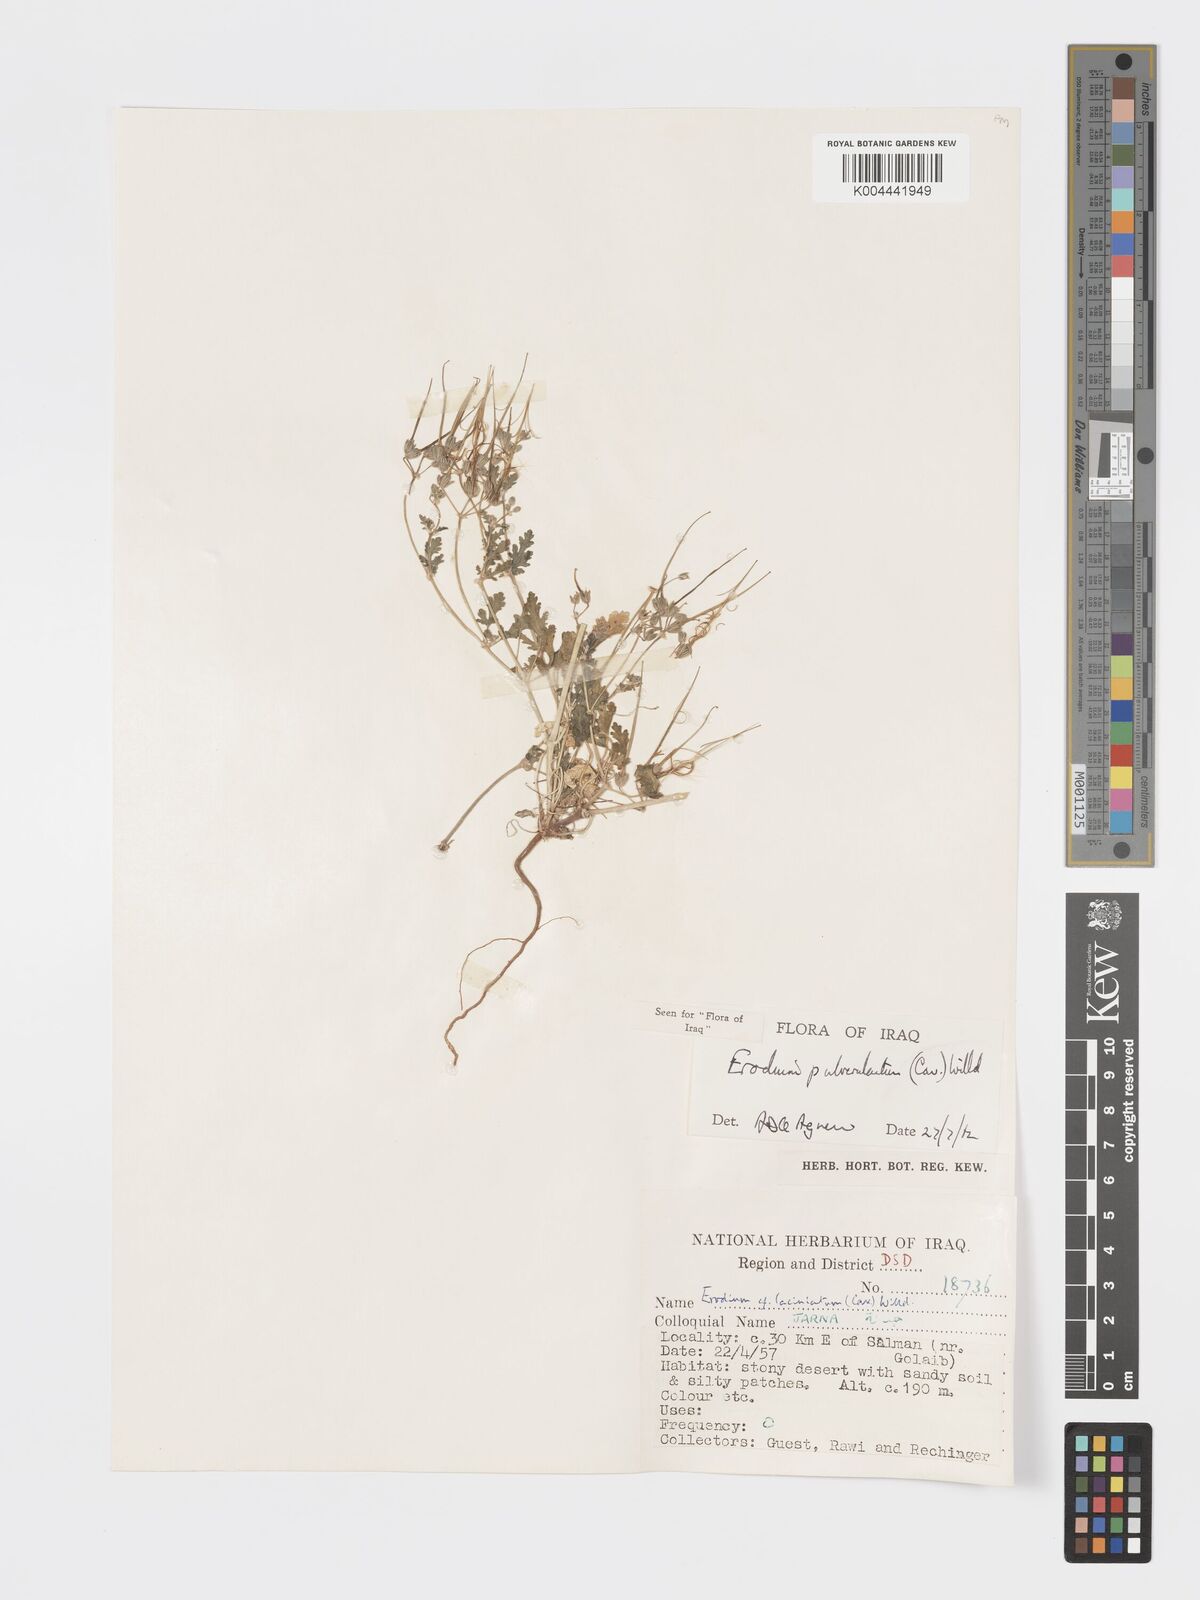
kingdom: Plantae
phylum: Tracheophyta
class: Magnoliopsida
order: Geraniales
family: Geraniaceae
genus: Erodium
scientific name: Erodium laciniatum
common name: Cutleaf stork's bill
